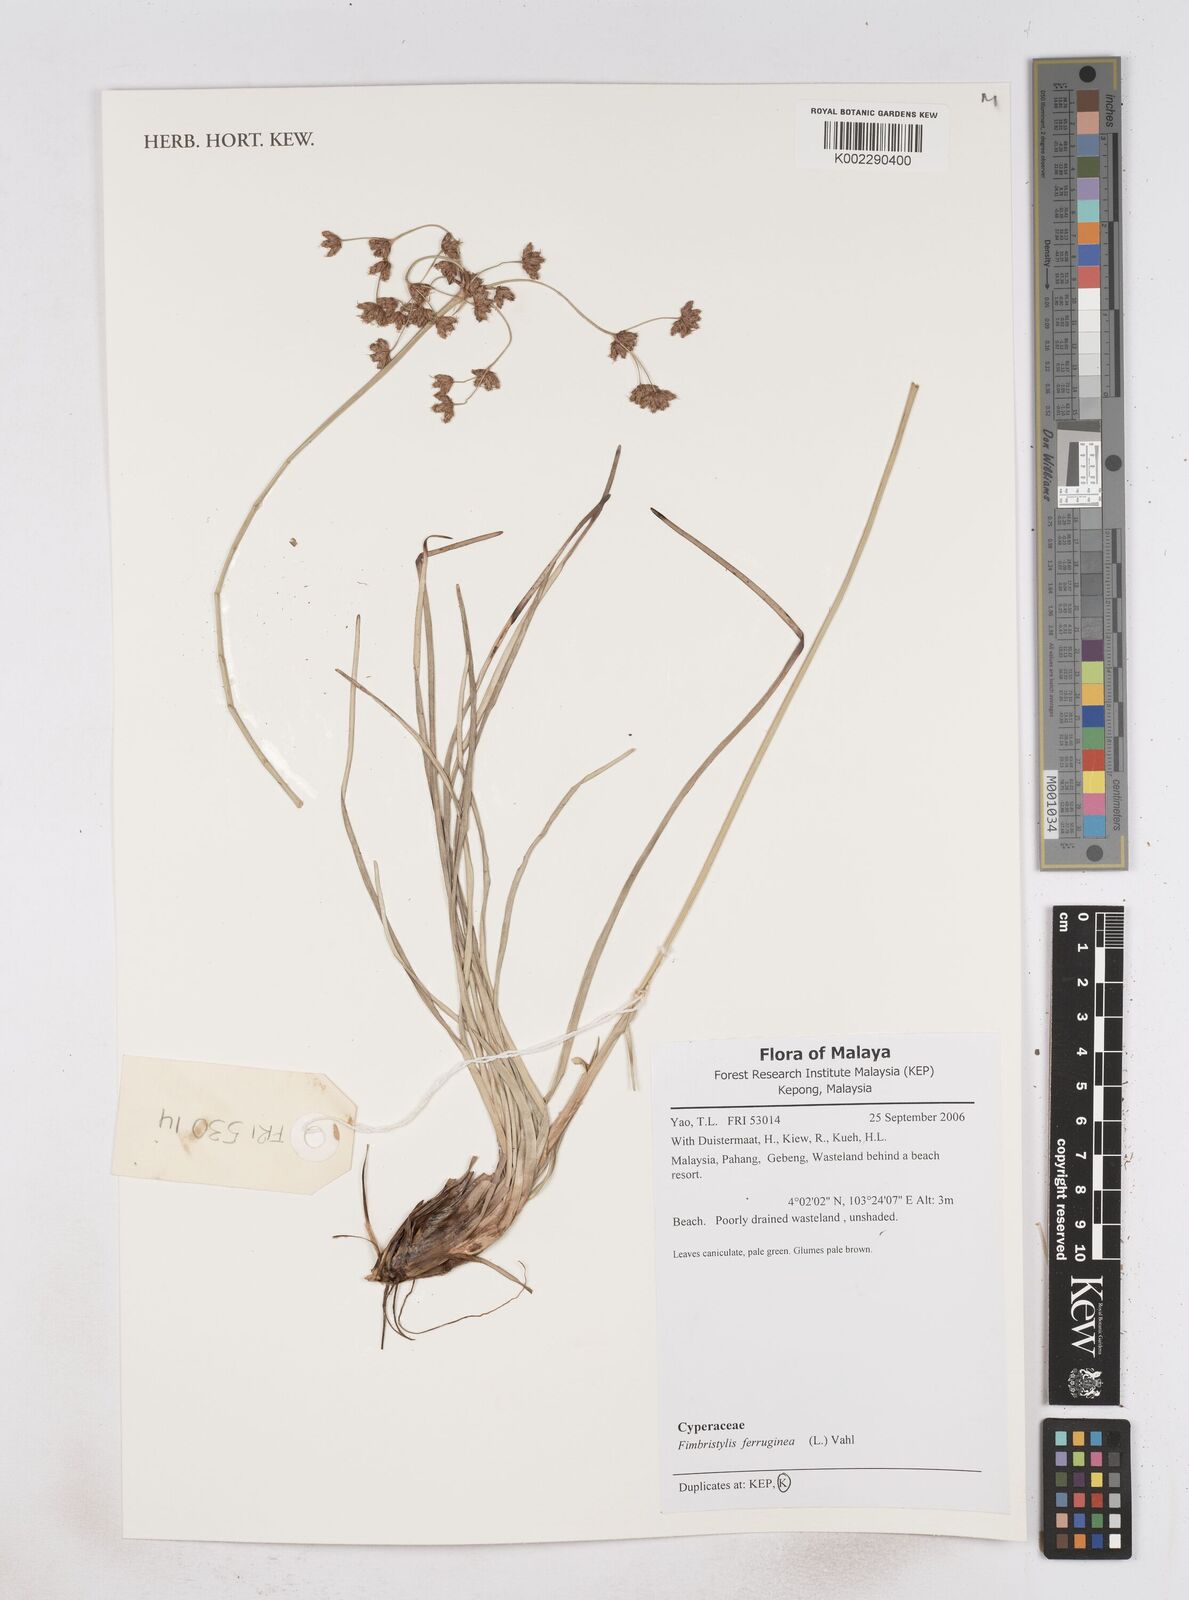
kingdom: Plantae
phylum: Tracheophyta
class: Liliopsida
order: Poales
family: Cyperaceae
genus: Fimbristylis
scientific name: Fimbristylis ferruginea
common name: West indian fimbry
